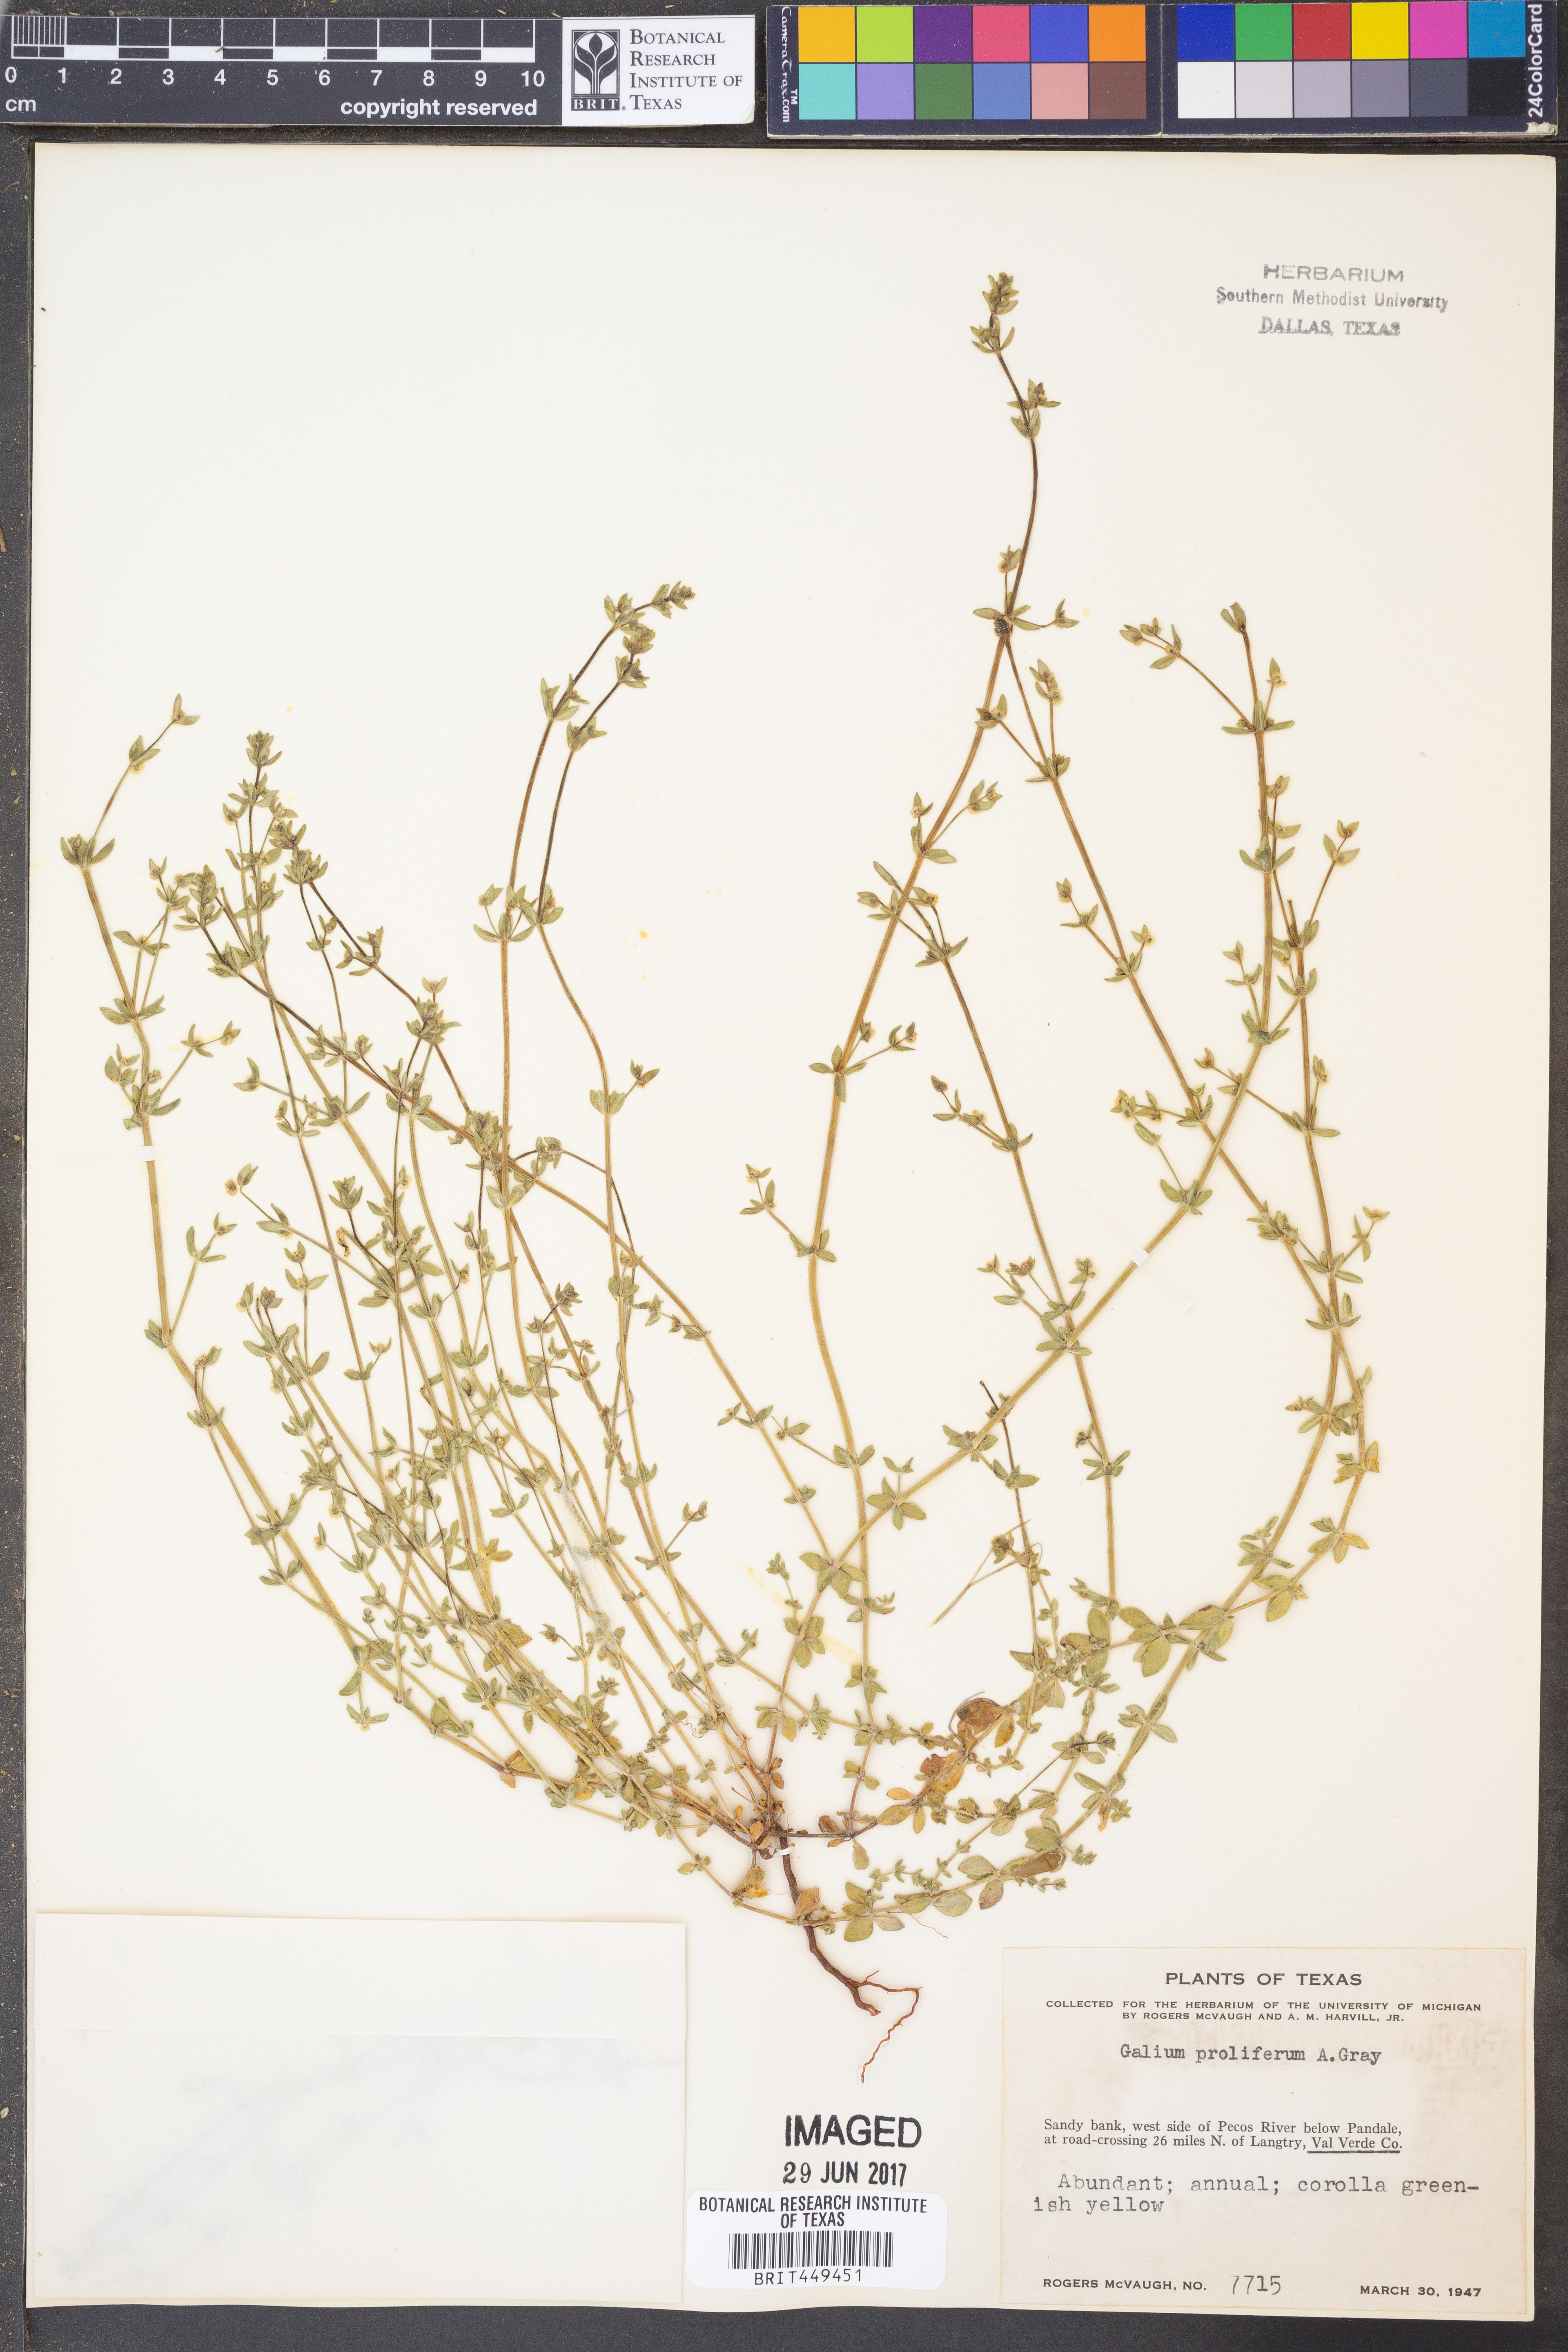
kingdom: Plantae
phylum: Tracheophyta
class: Magnoliopsida
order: Gentianales
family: Rubiaceae
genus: Galium
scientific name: Galium proliferum
